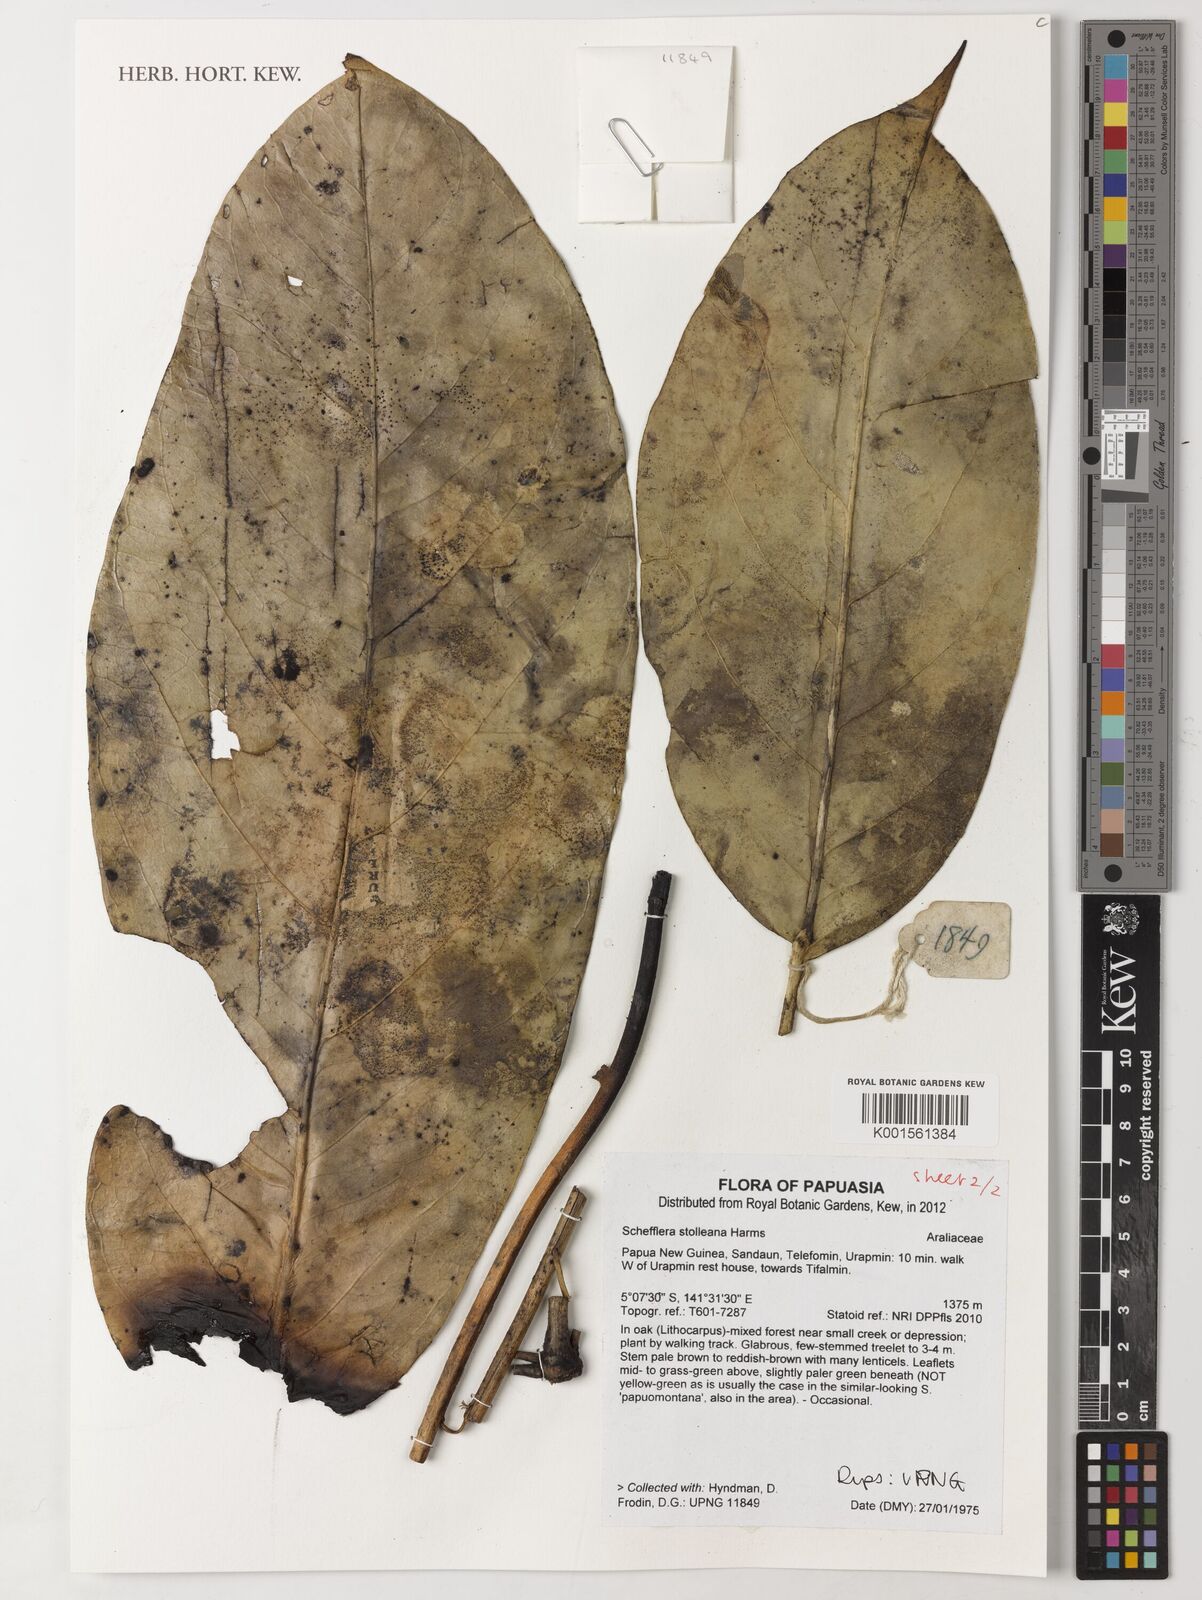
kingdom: Plantae
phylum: Tracheophyta
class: Magnoliopsida
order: Apiales
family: Araliaceae
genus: Heptapleurum
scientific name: Heptapleurum stolleanum
